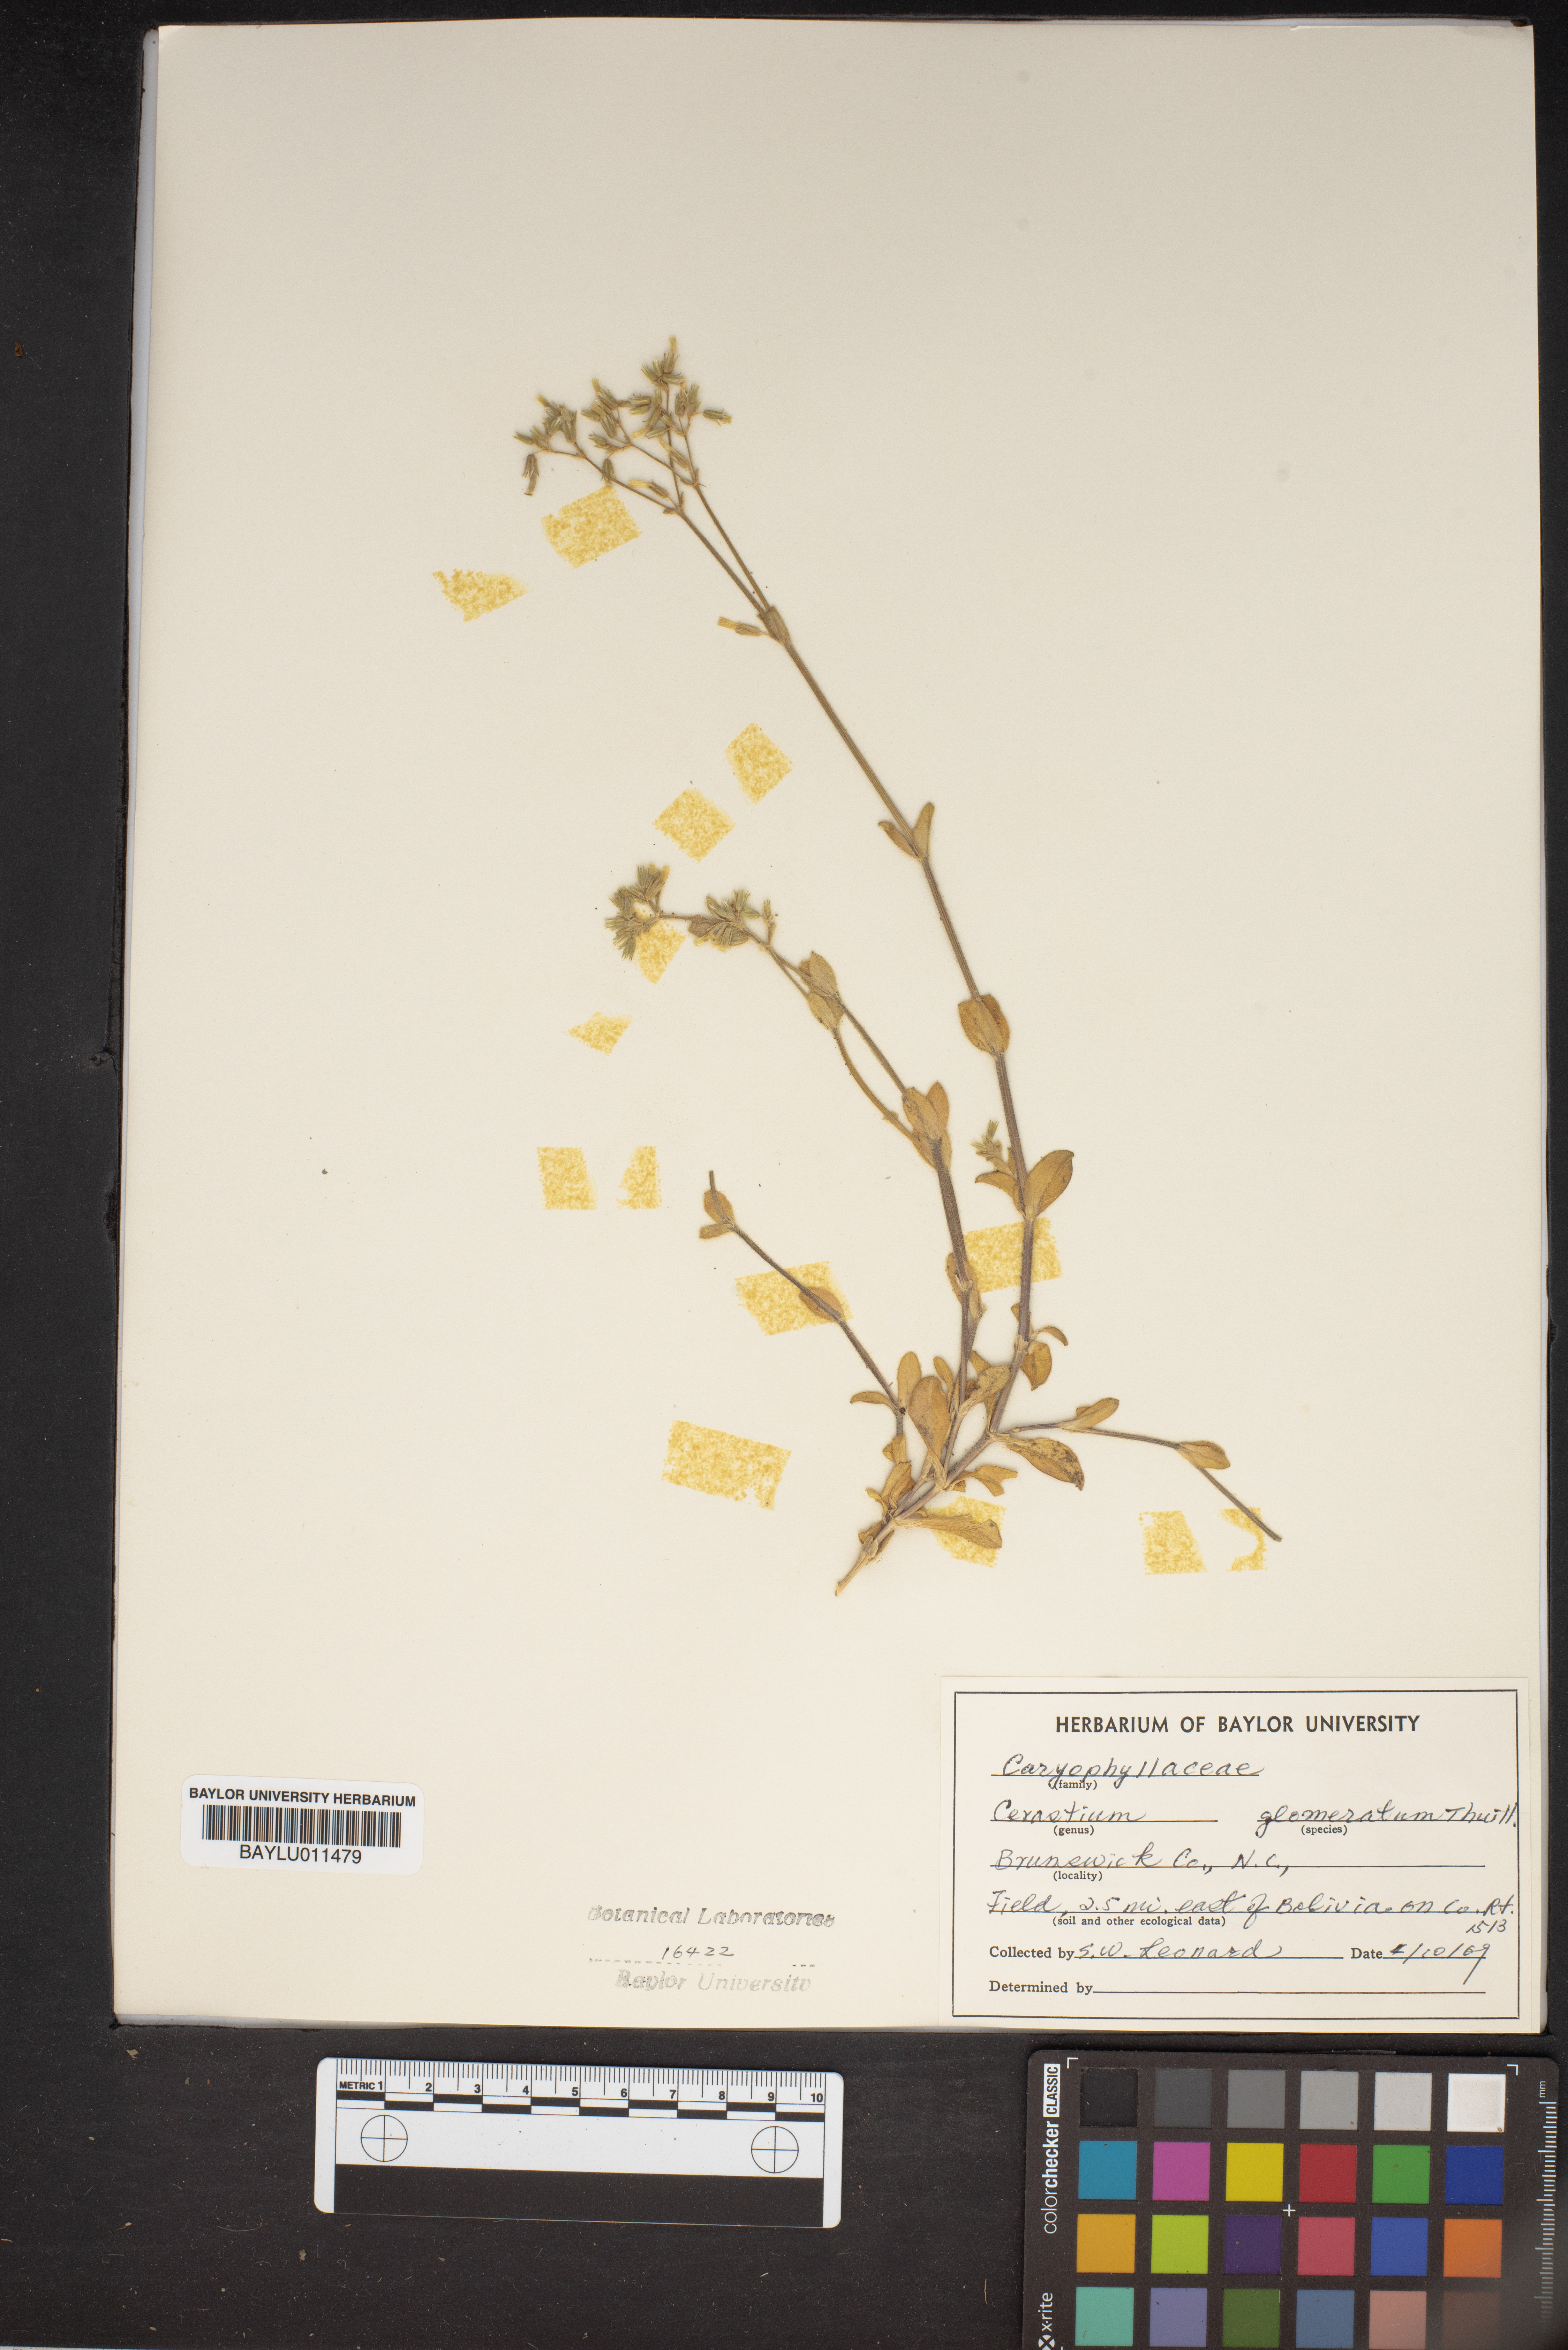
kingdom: Plantae
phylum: Tracheophyta
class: Magnoliopsida
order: Caryophyllales
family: Caryophyllaceae
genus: Cerastium
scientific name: Cerastium glomeratum
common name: Sticky chickweed
